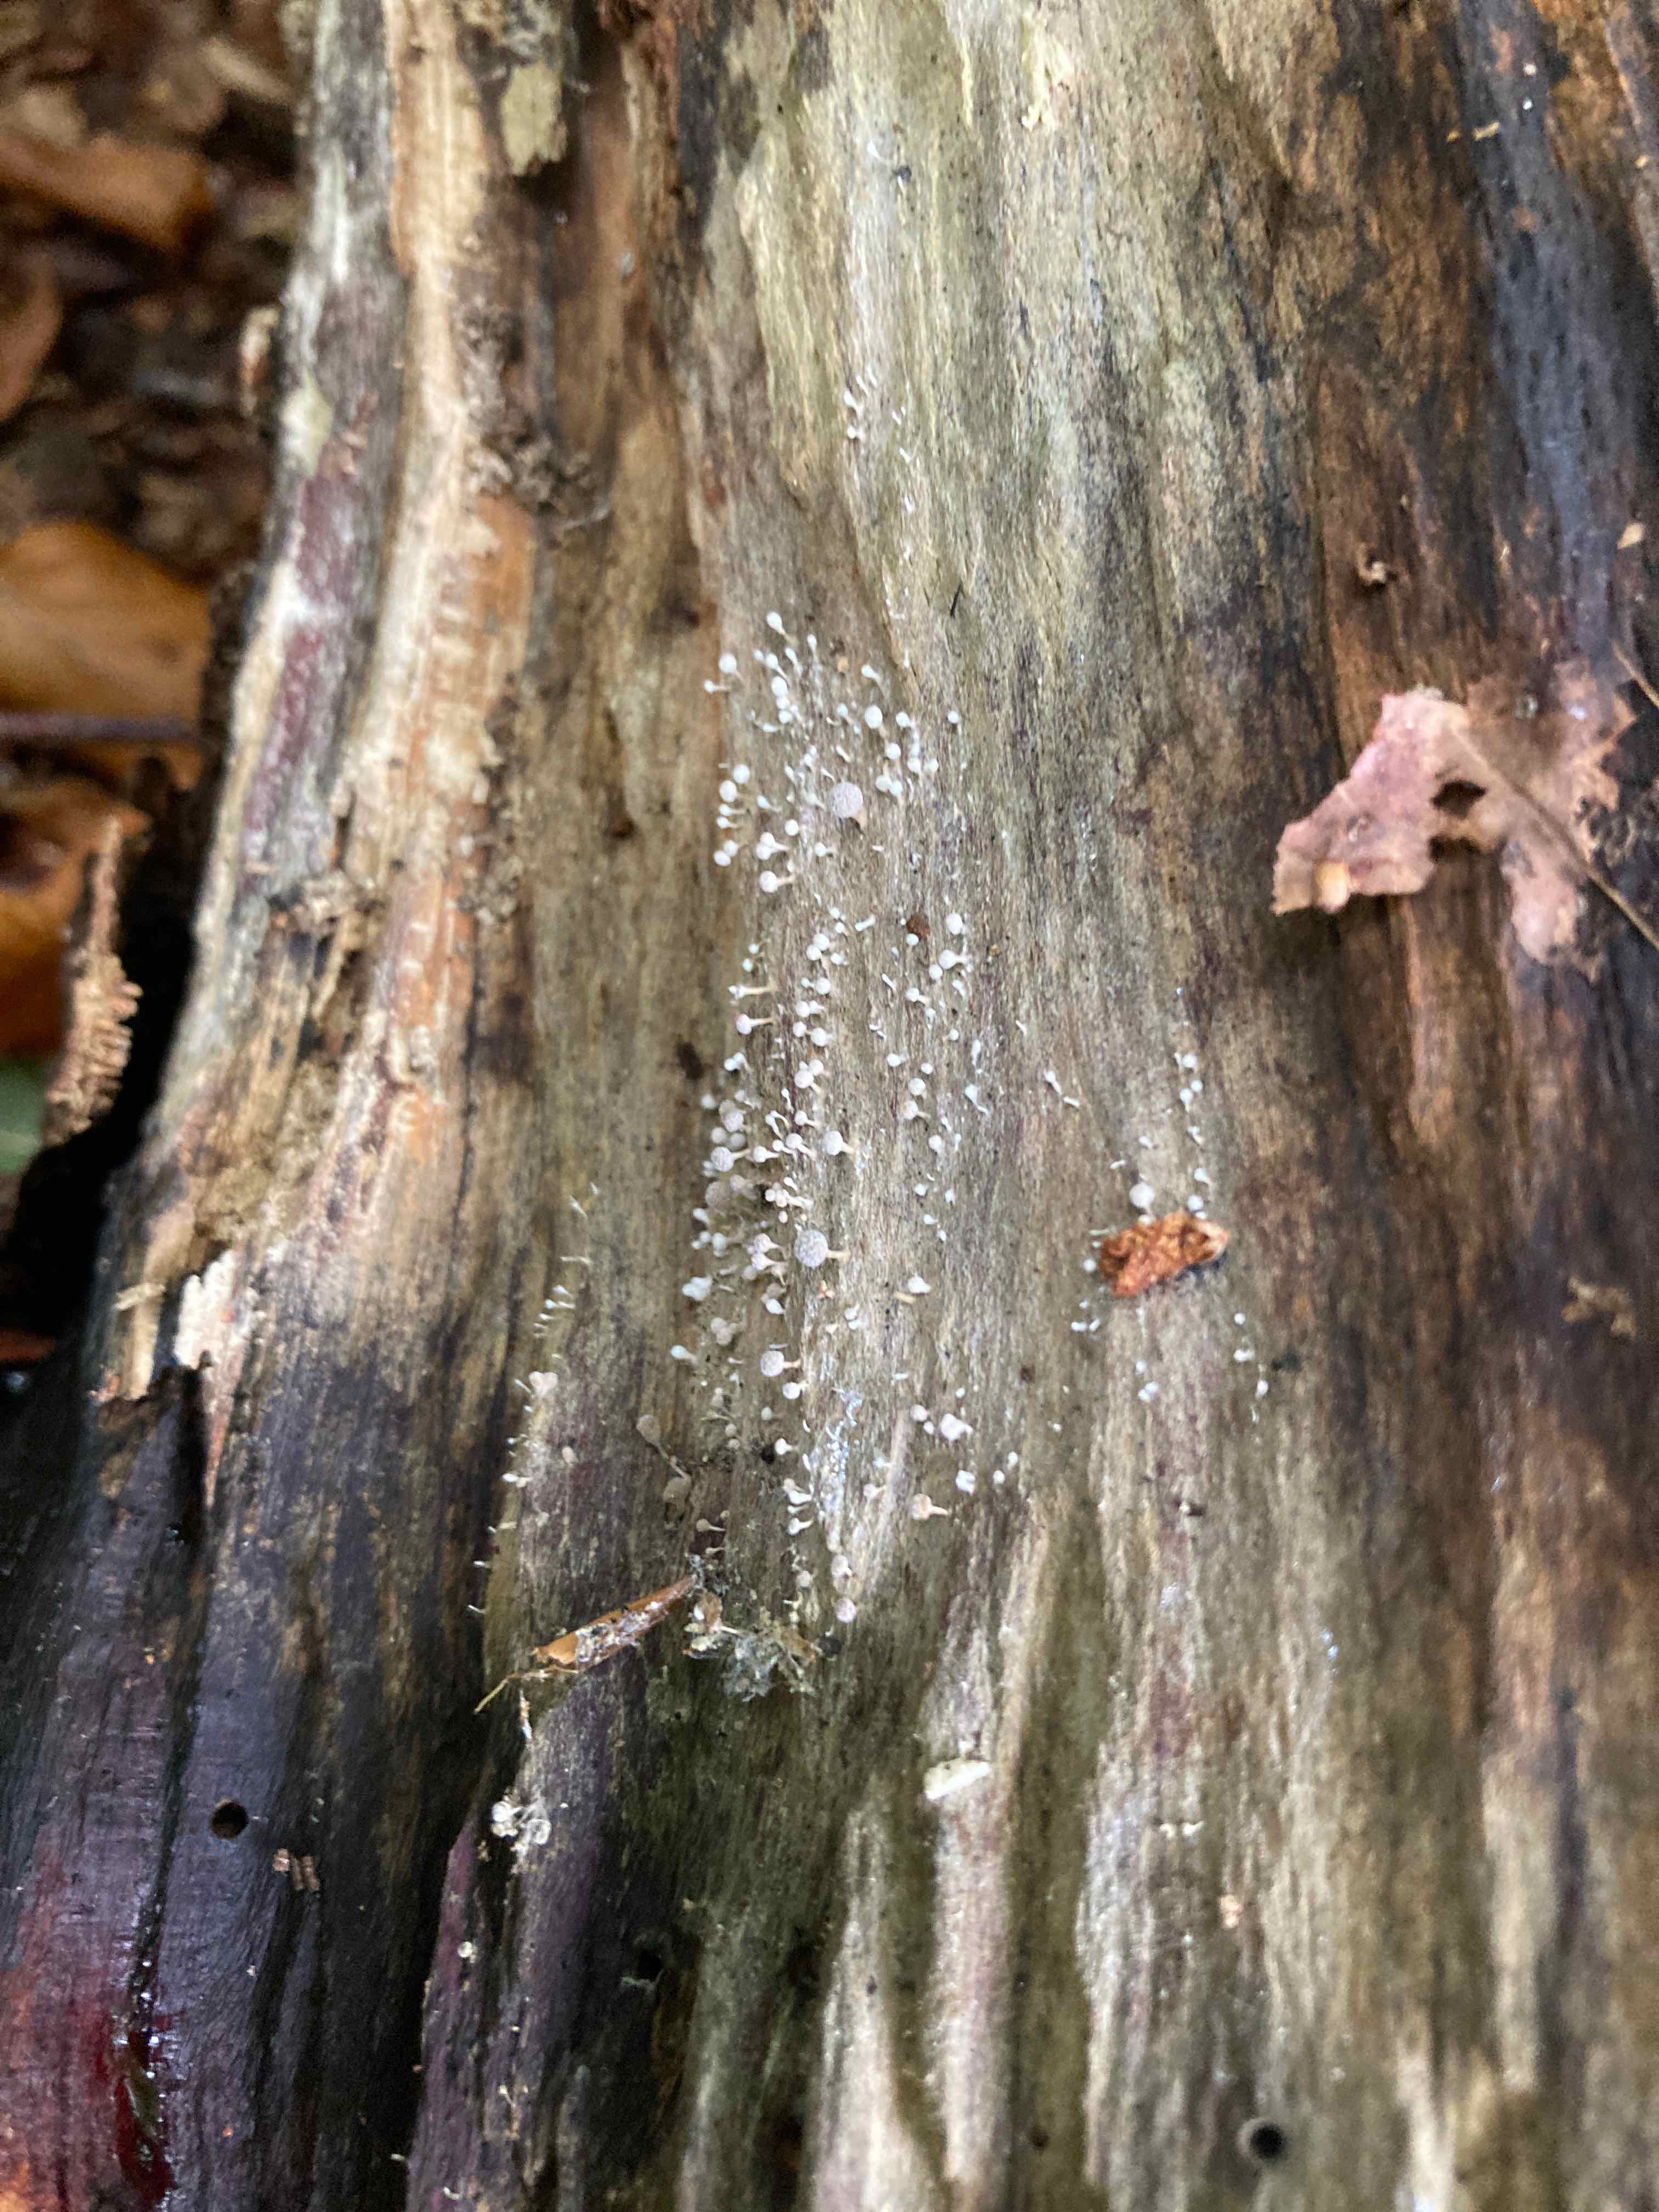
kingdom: Fungi
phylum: Basidiomycota
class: Atractiellomycetes
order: Atractiellales
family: Phleogenaceae
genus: Phleogena
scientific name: Phleogena faginea
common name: pudderkølle
